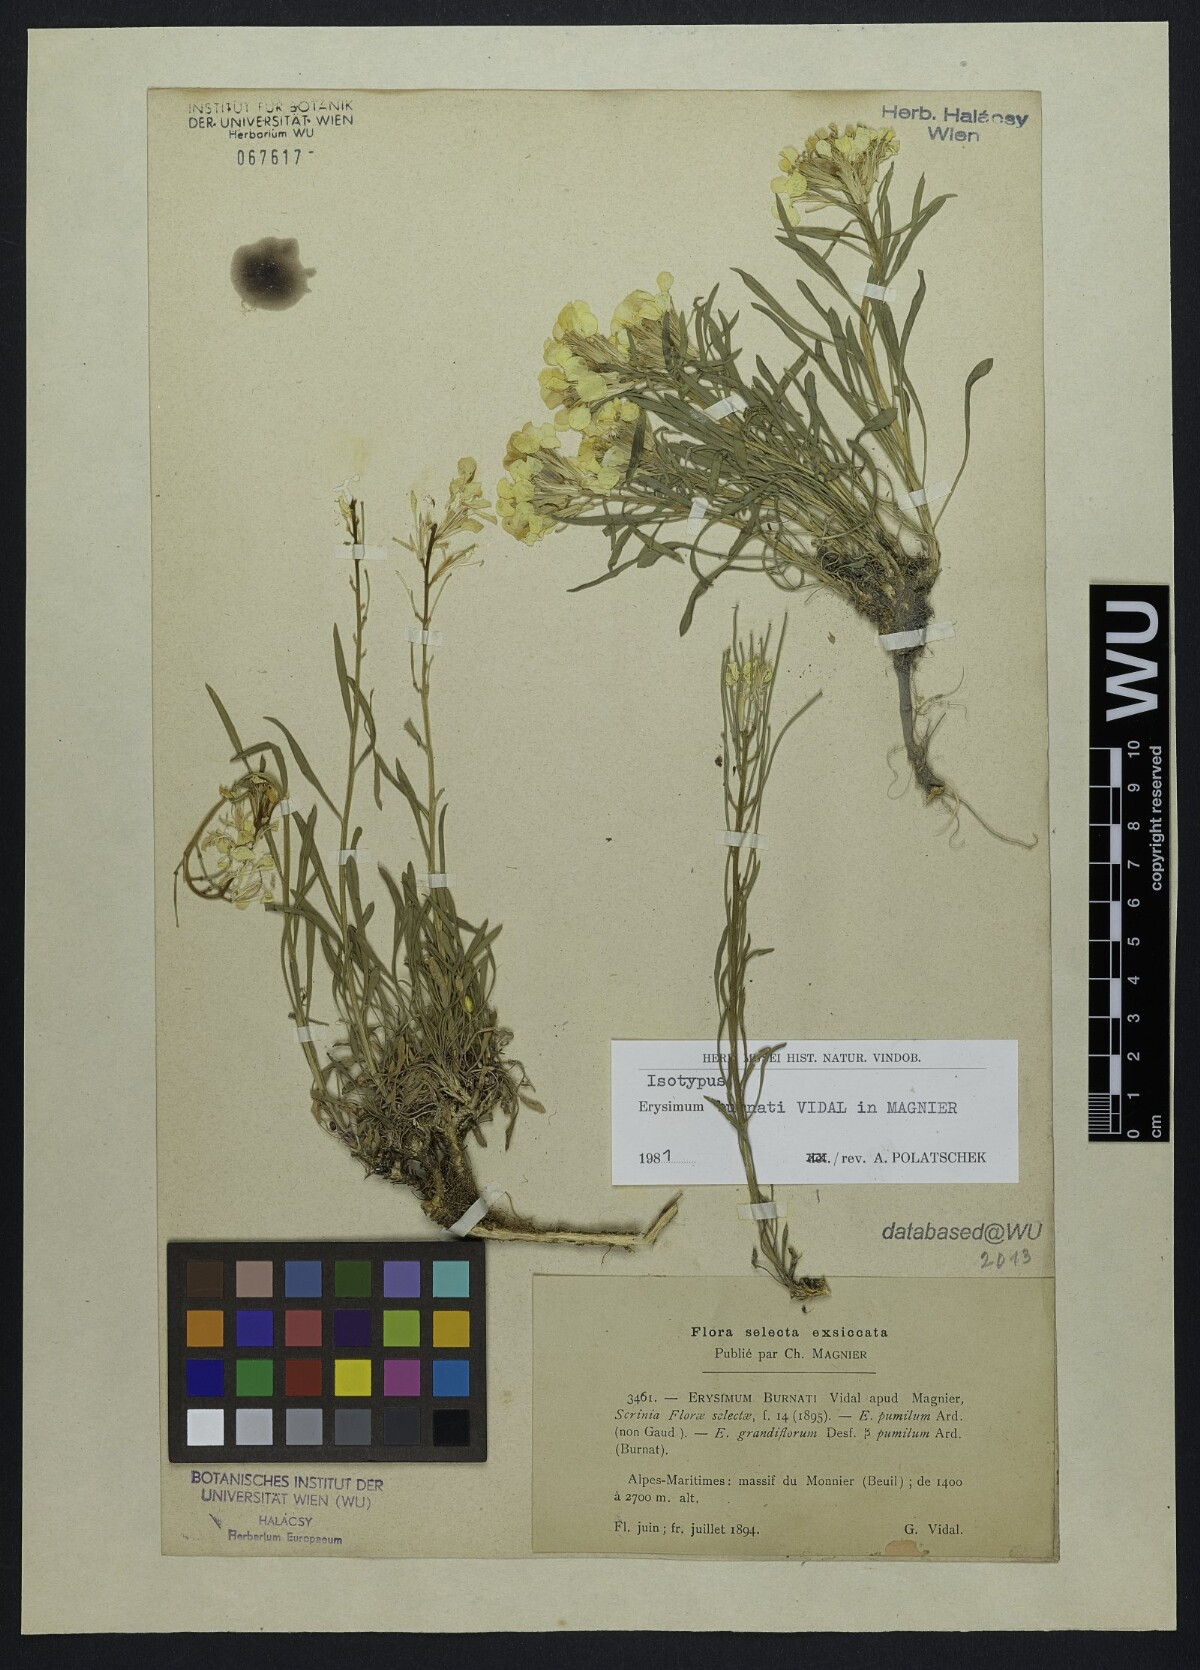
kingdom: Plantae
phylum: Tracheophyta
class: Magnoliopsida
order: Brassicales
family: Brassicaceae
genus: Erysimum
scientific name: Erysimum burnatii
